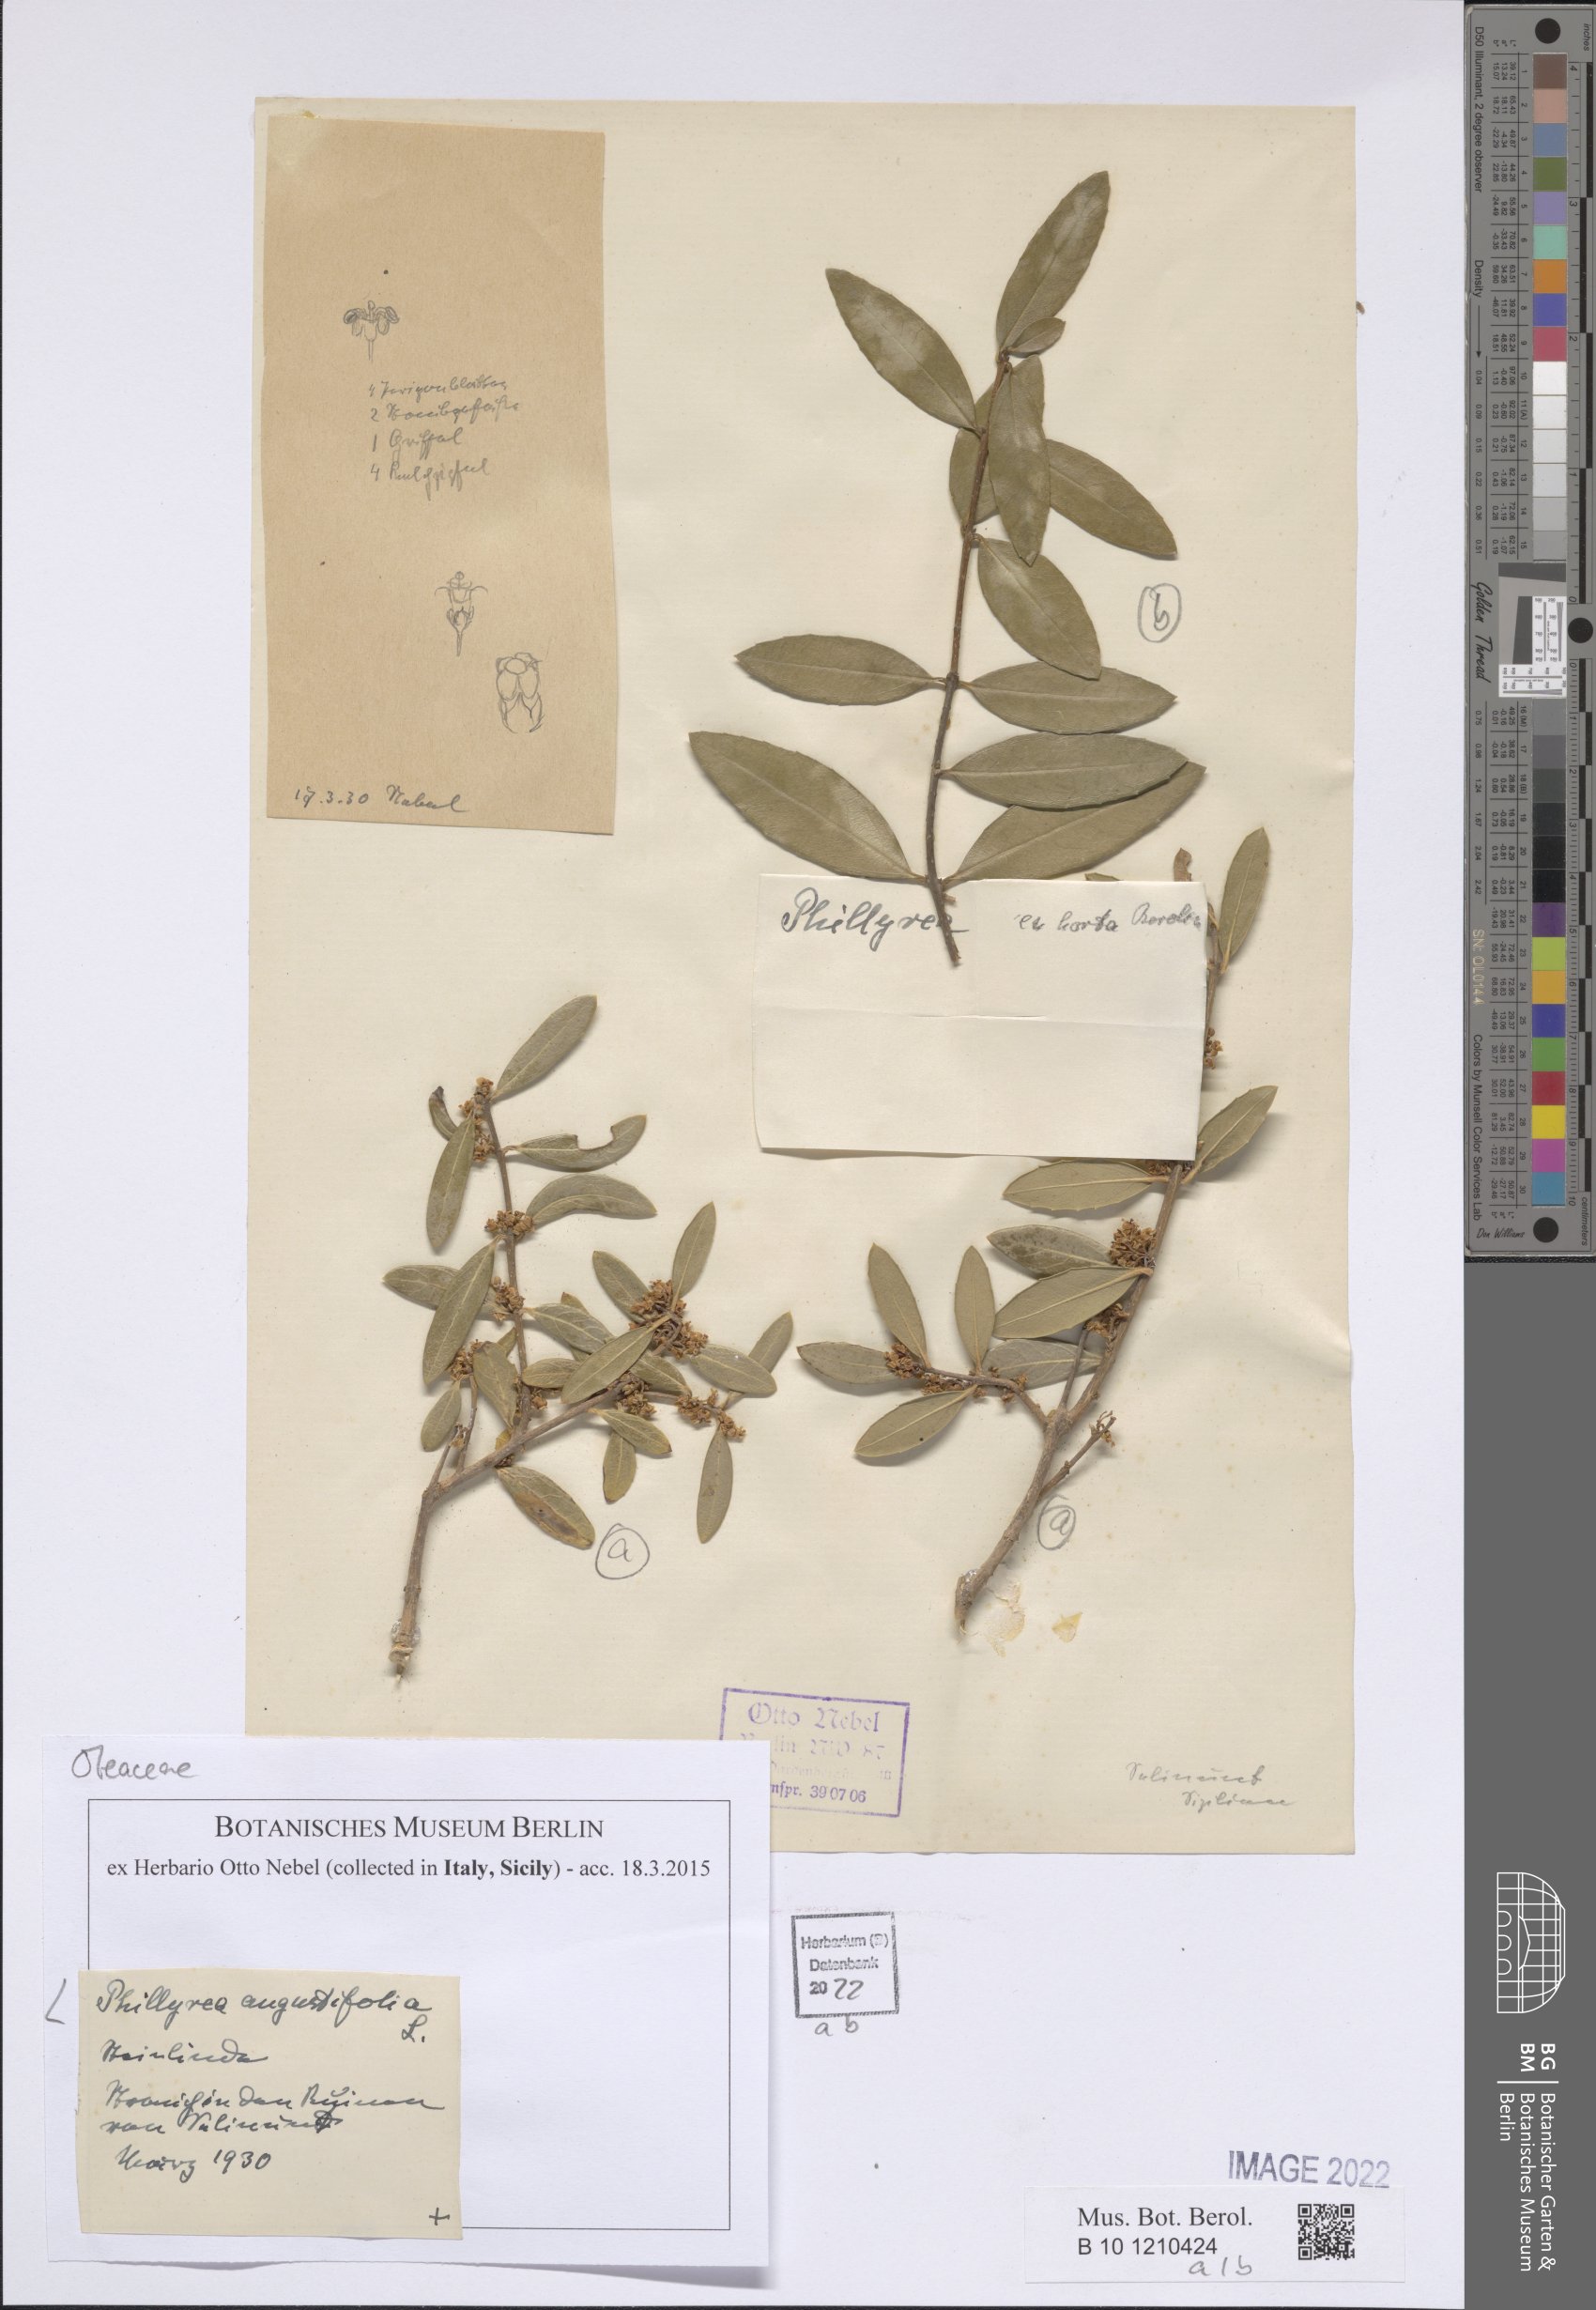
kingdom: Plantae
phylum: Tracheophyta
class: Magnoliopsida
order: Lamiales
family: Oleaceae
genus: Phillyrea
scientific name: Phillyrea angustifolia
